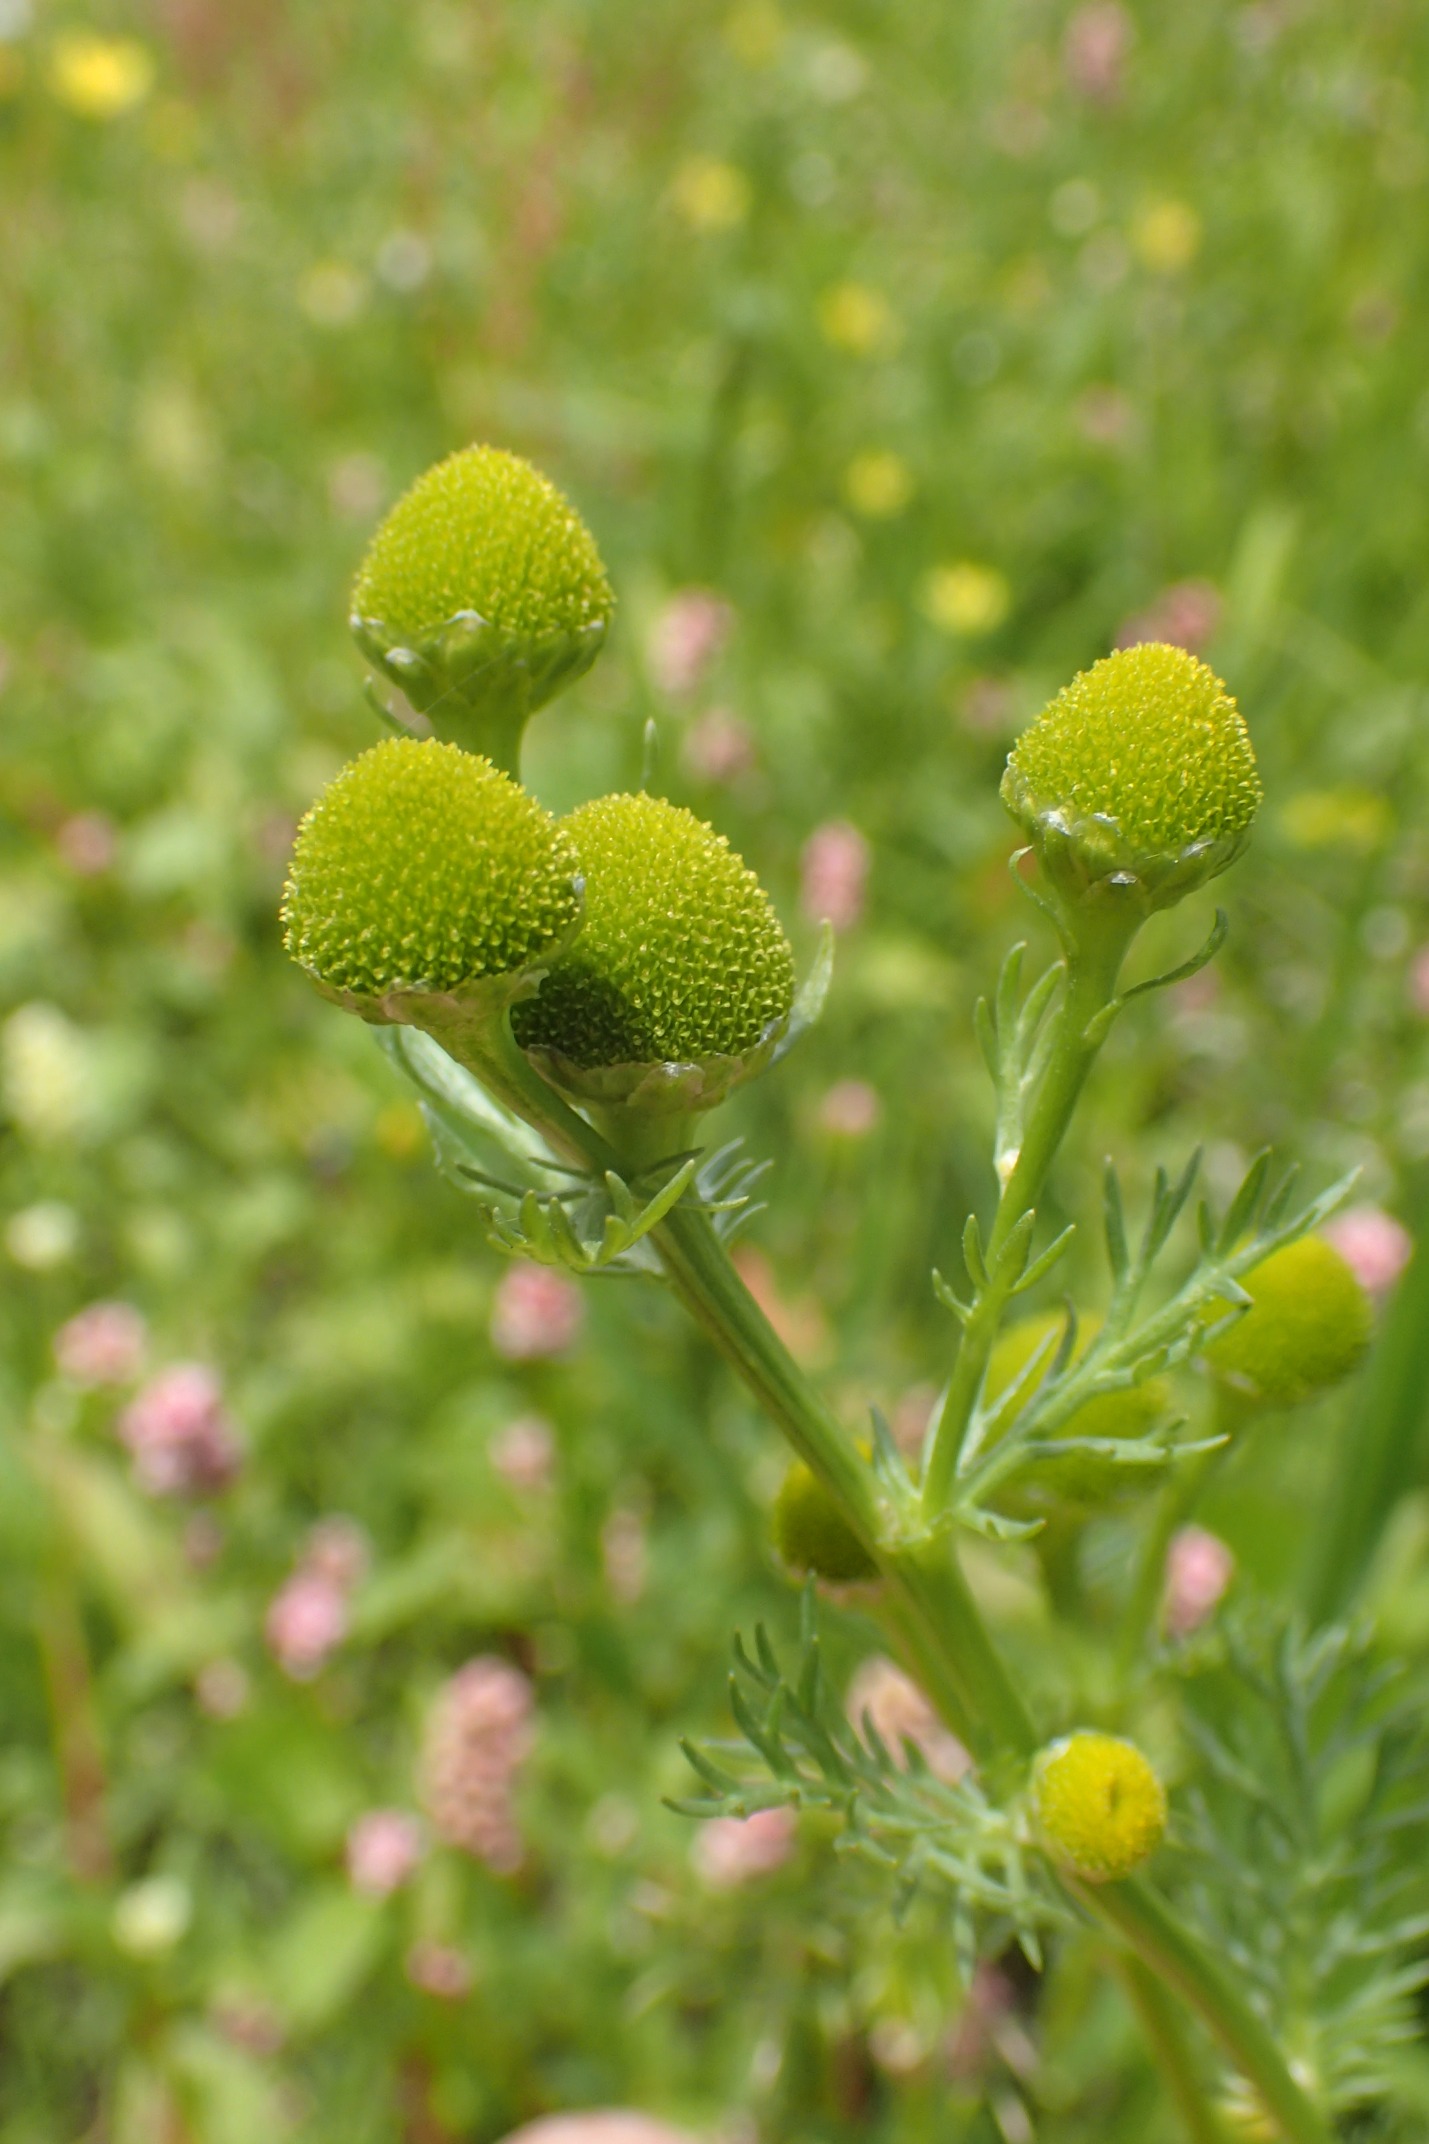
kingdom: Plantae
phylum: Tracheophyta
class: Magnoliopsida
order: Asterales
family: Asteraceae
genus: Matricaria
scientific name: Matricaria discoidea
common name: Skive-kamille
